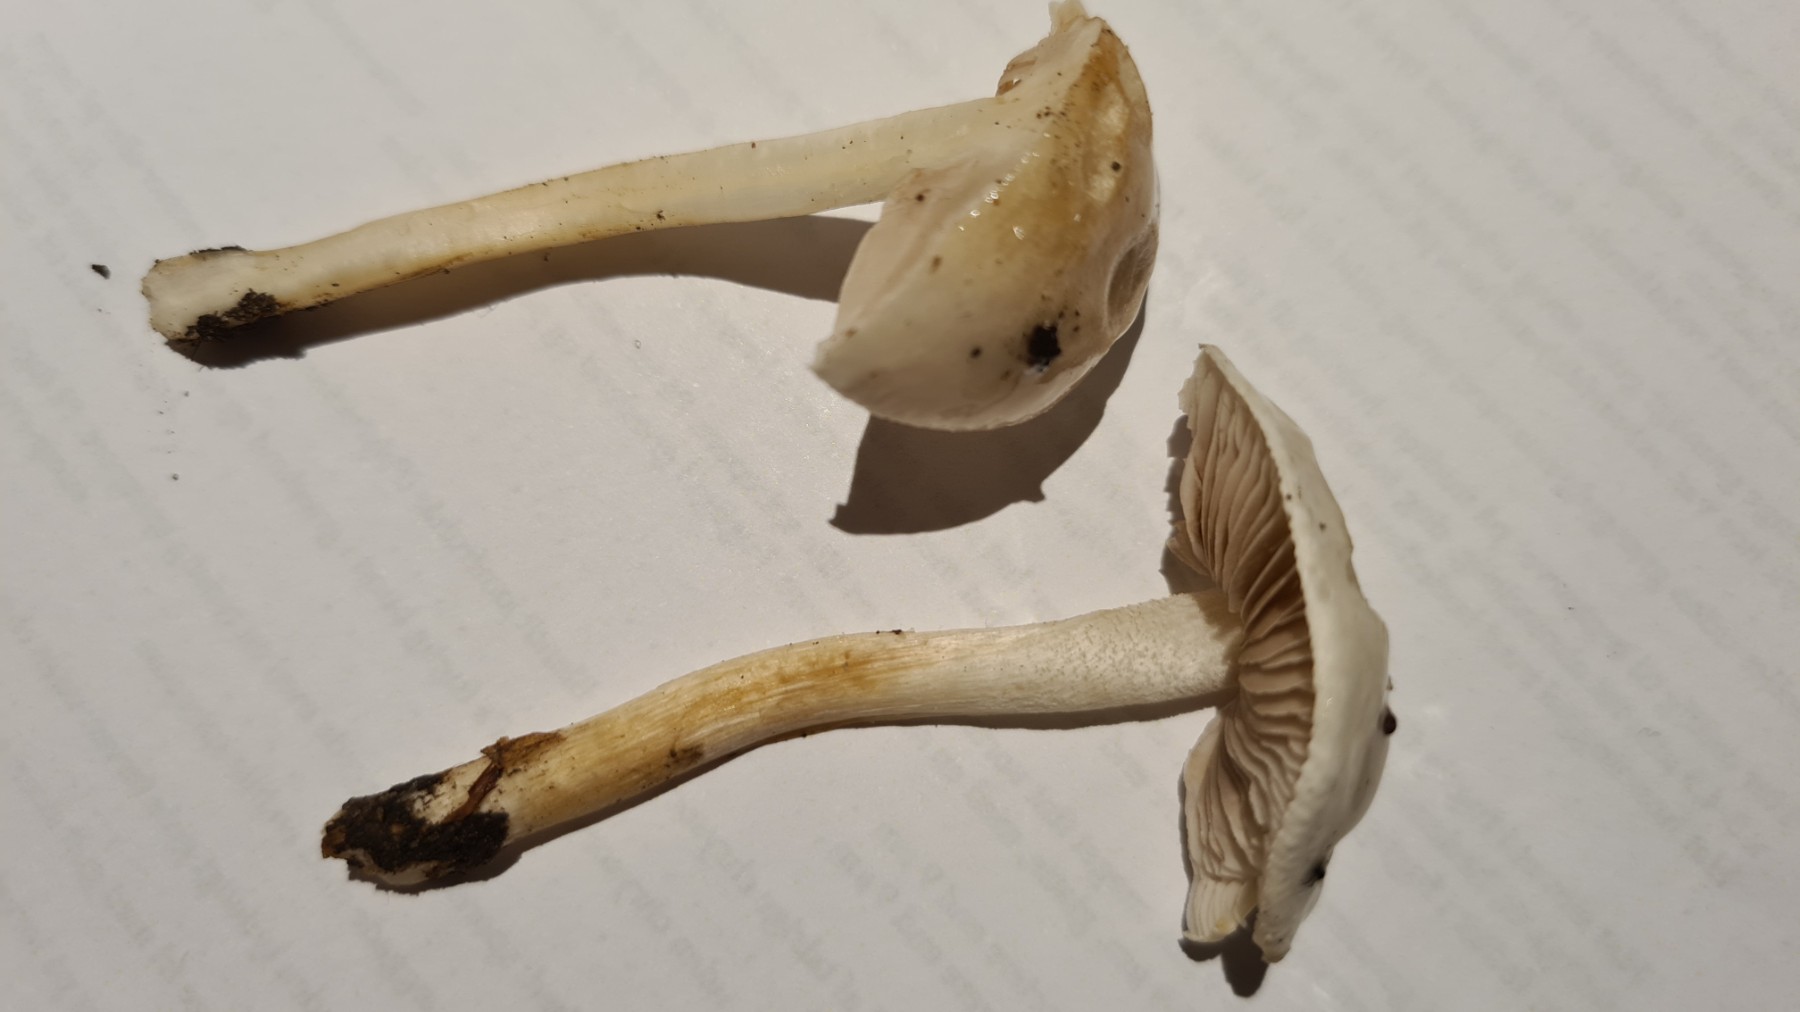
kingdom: Fungi
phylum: Basidiomycota
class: Agaricomycetes
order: Agaricales
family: Hymenogastraceae
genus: Hebeloma
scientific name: Hebeloma
